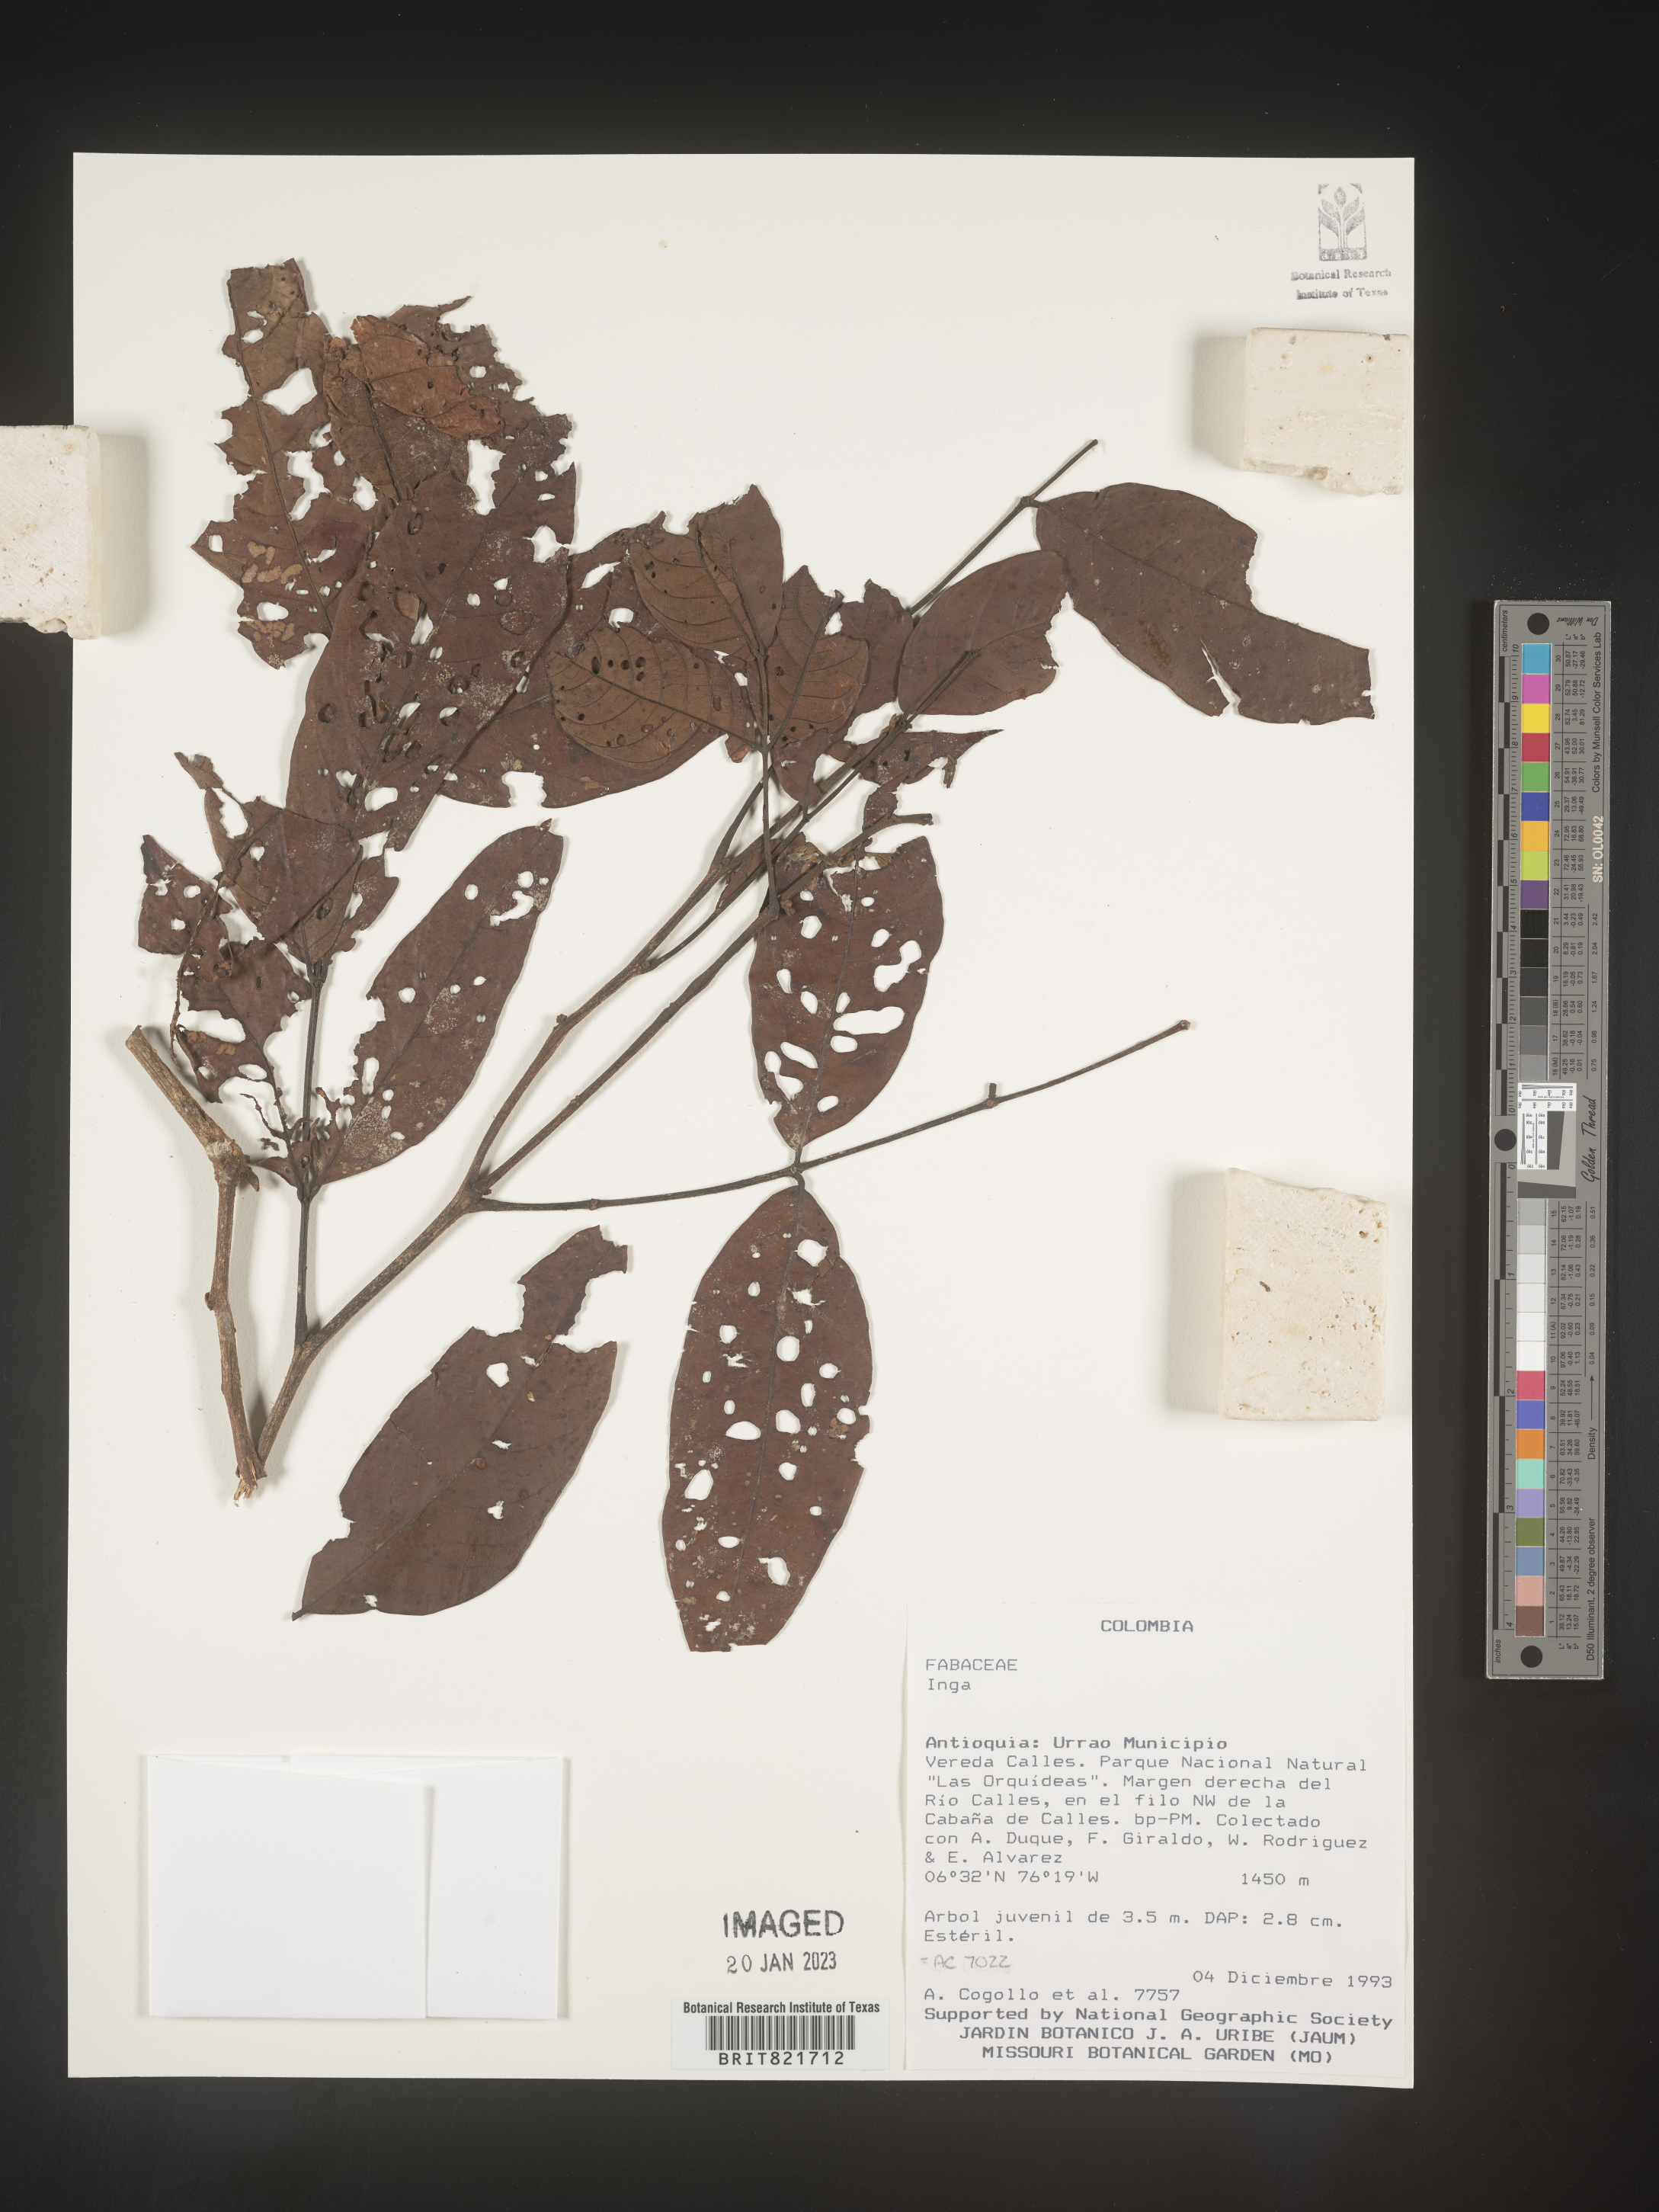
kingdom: Plantae
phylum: Tracheophyta
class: Magnoliopsida
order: Fabales
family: Fabaceae
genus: Inga
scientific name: Inga
